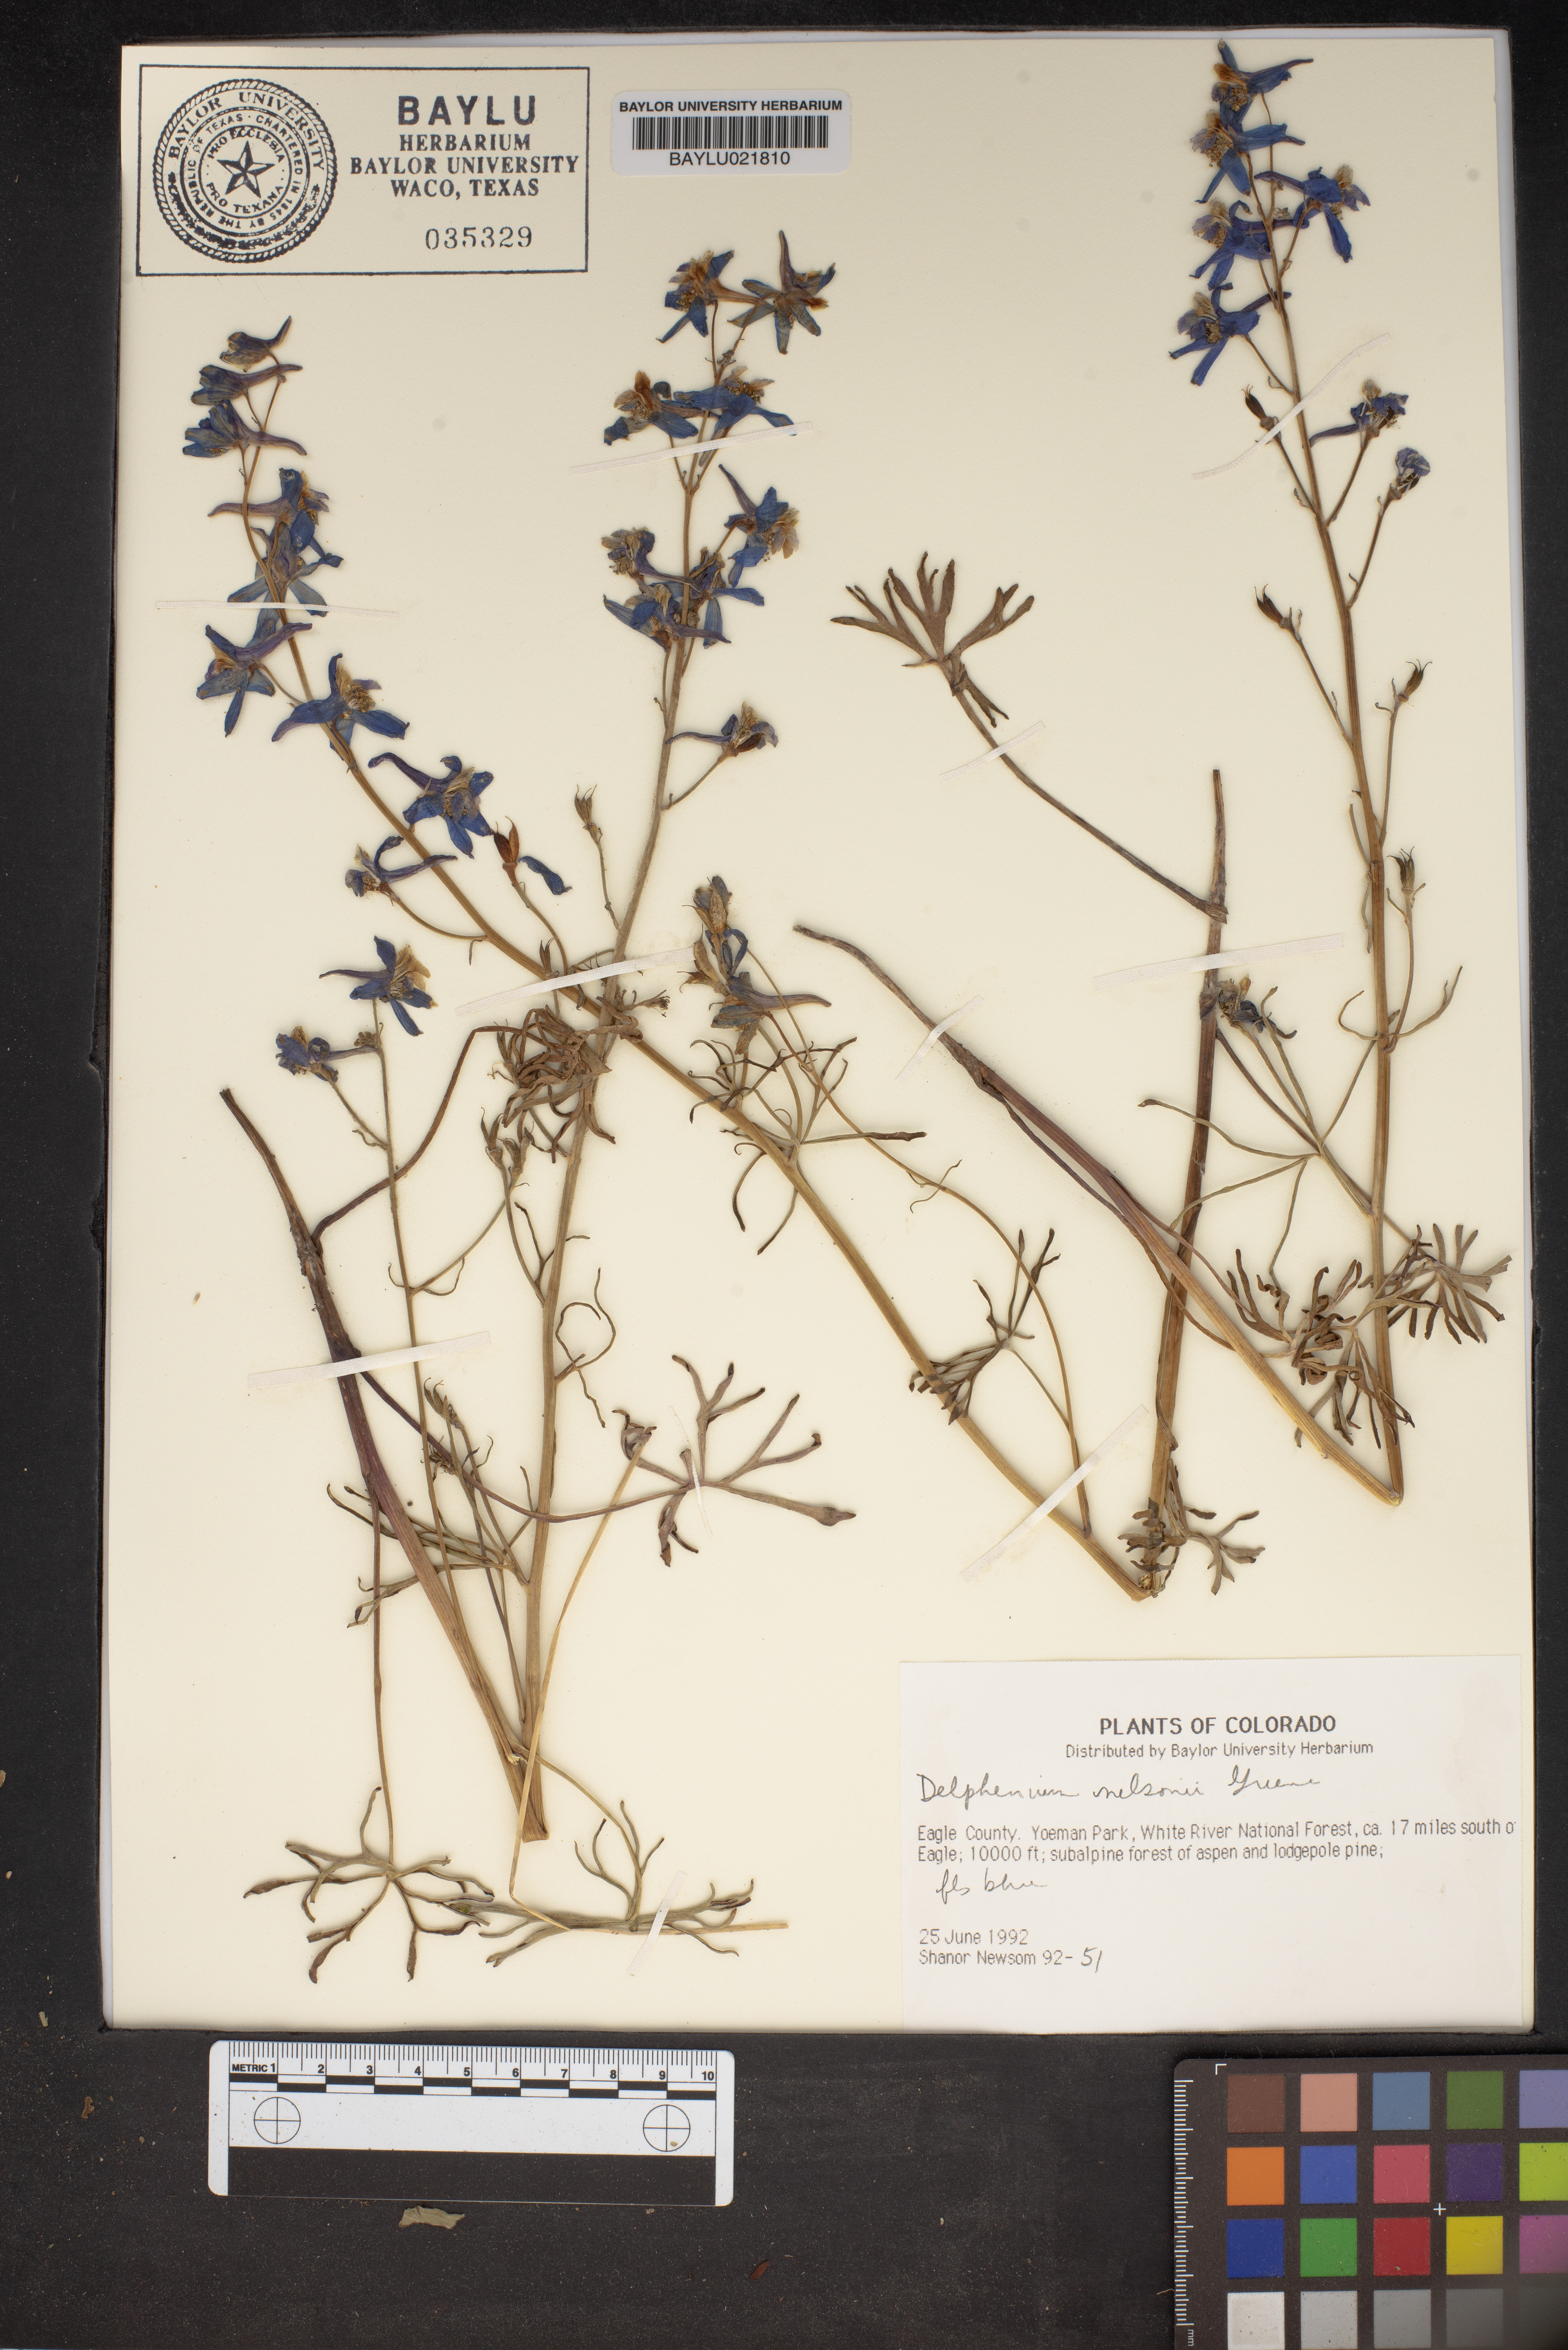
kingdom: Plantae
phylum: Tracheophyta
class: Magnoliopsida
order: Ranunculales
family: Ranunculaceae
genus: Delphinium
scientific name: Delphinium nuttallianum
